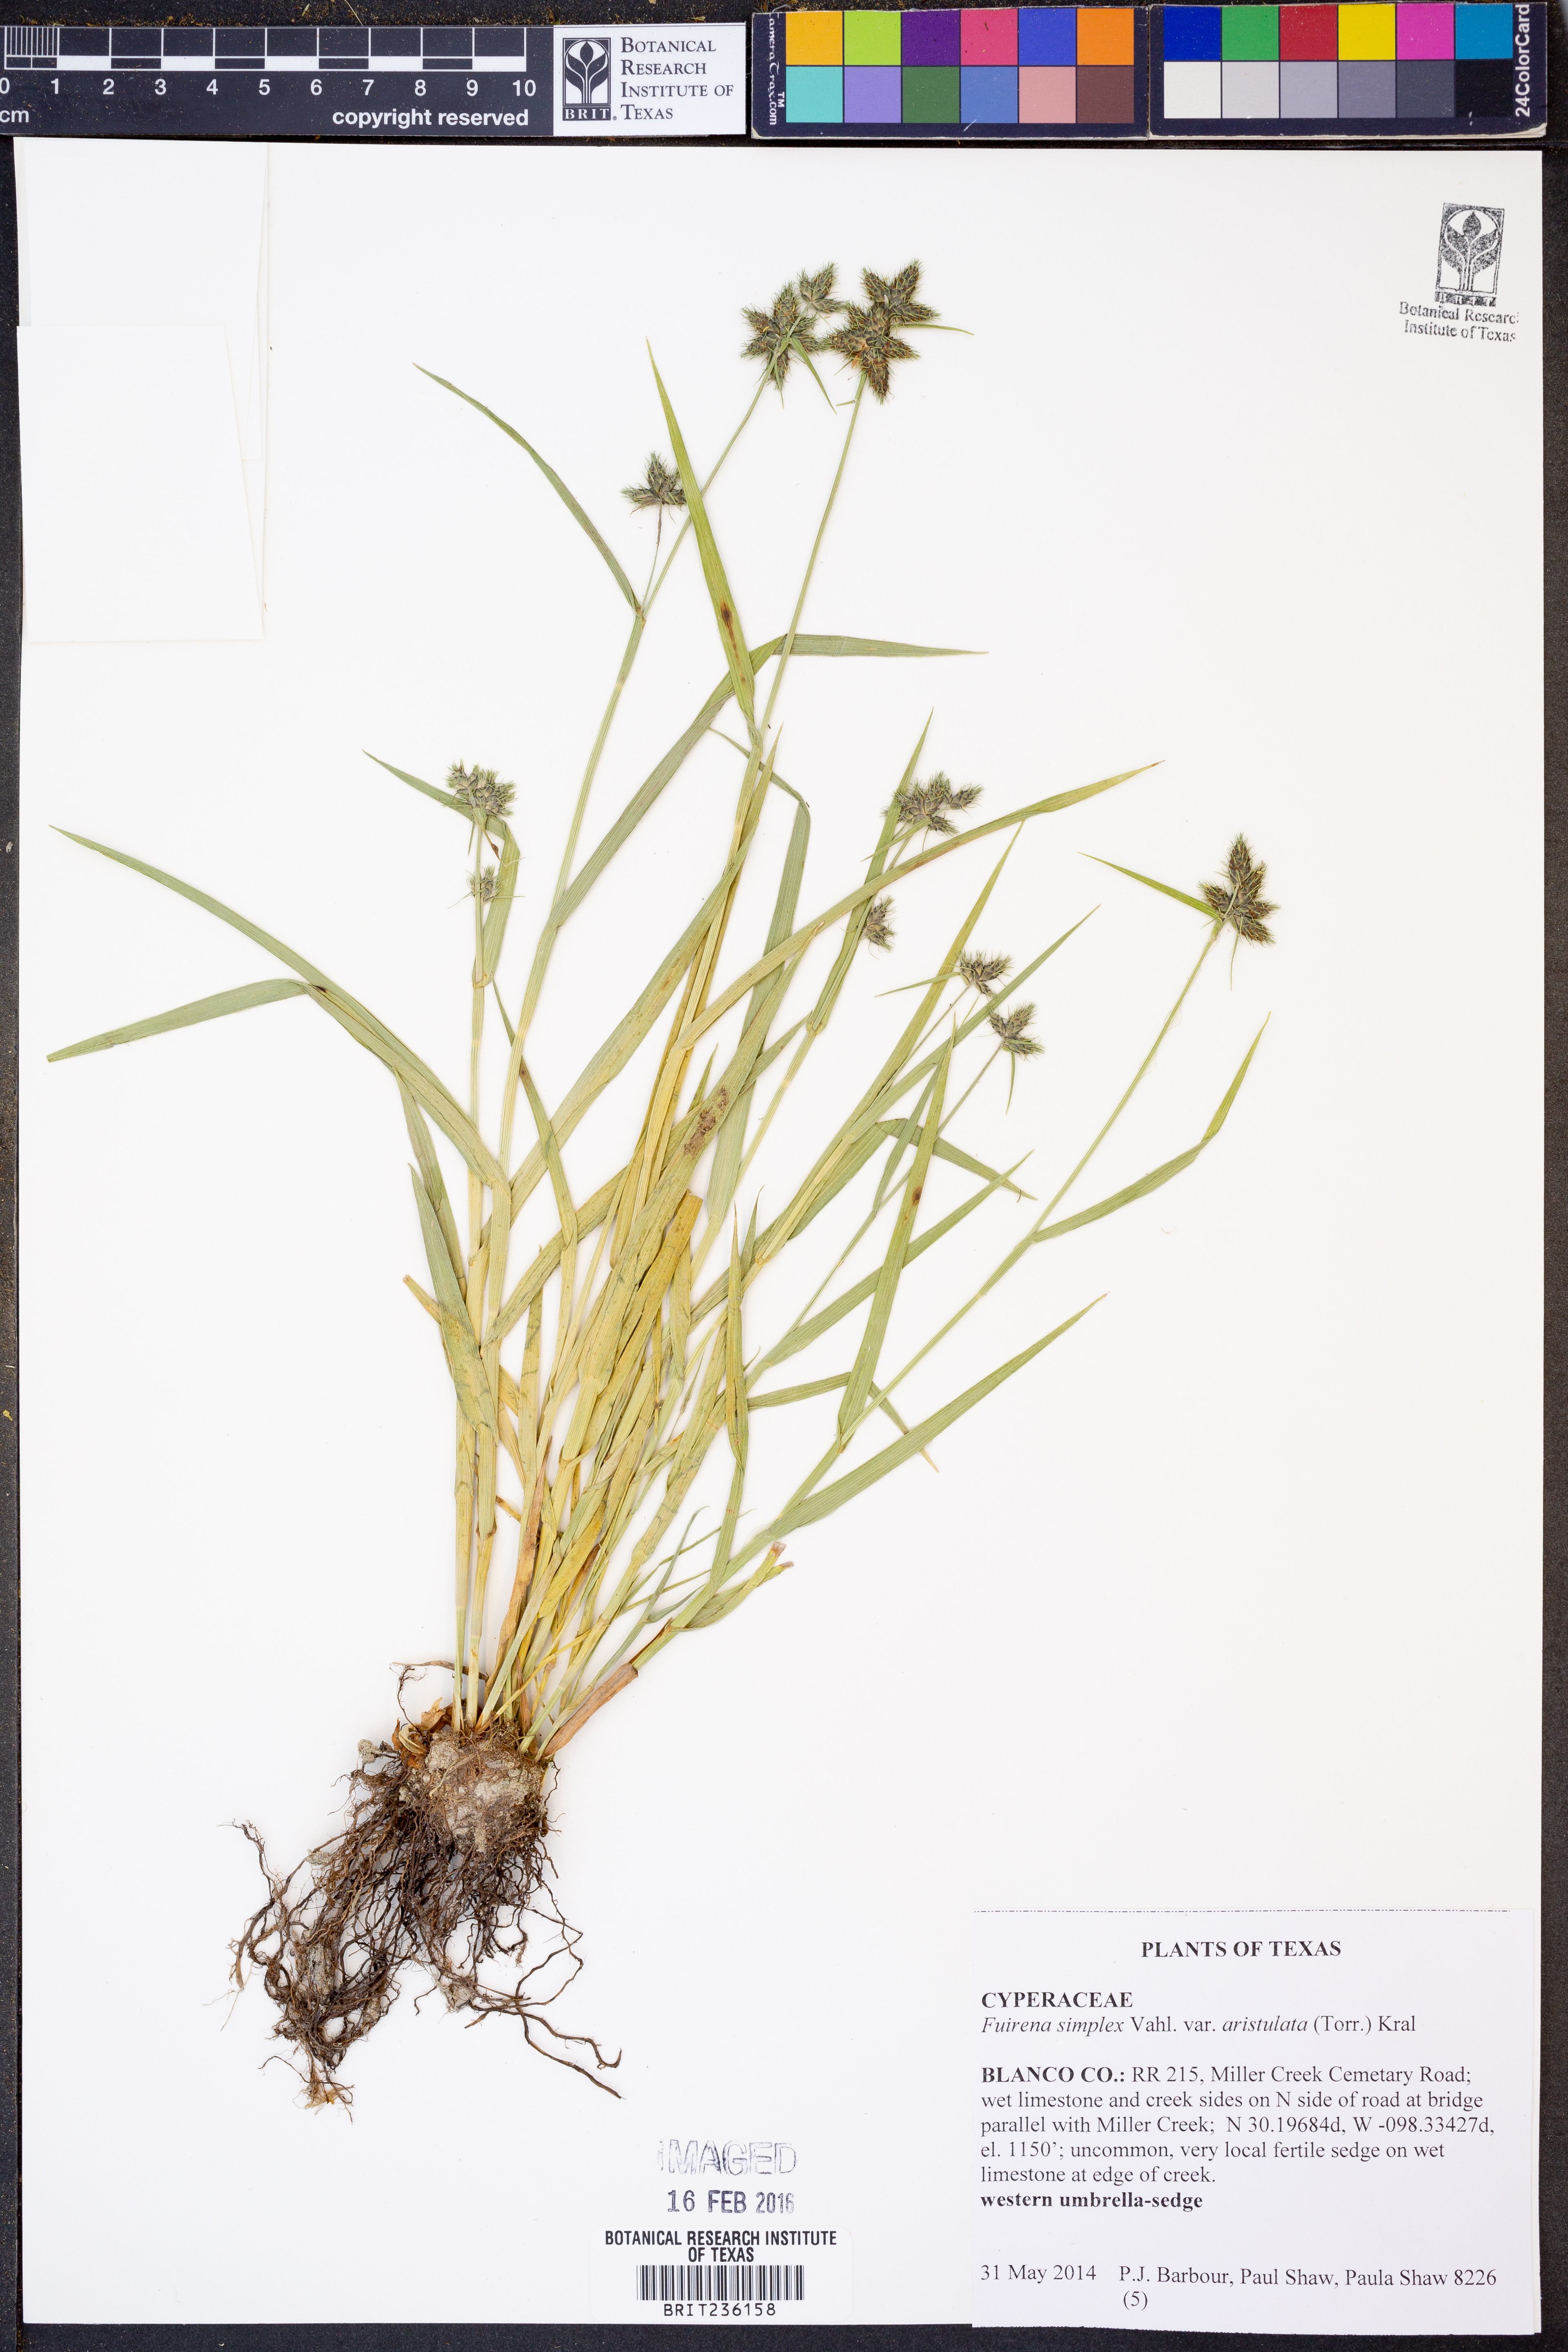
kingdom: Plantae
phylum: Tracheophyta
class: Liliopsida
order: Poales
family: Cyperaceae
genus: Fuirena
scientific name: Fuirena simplex
